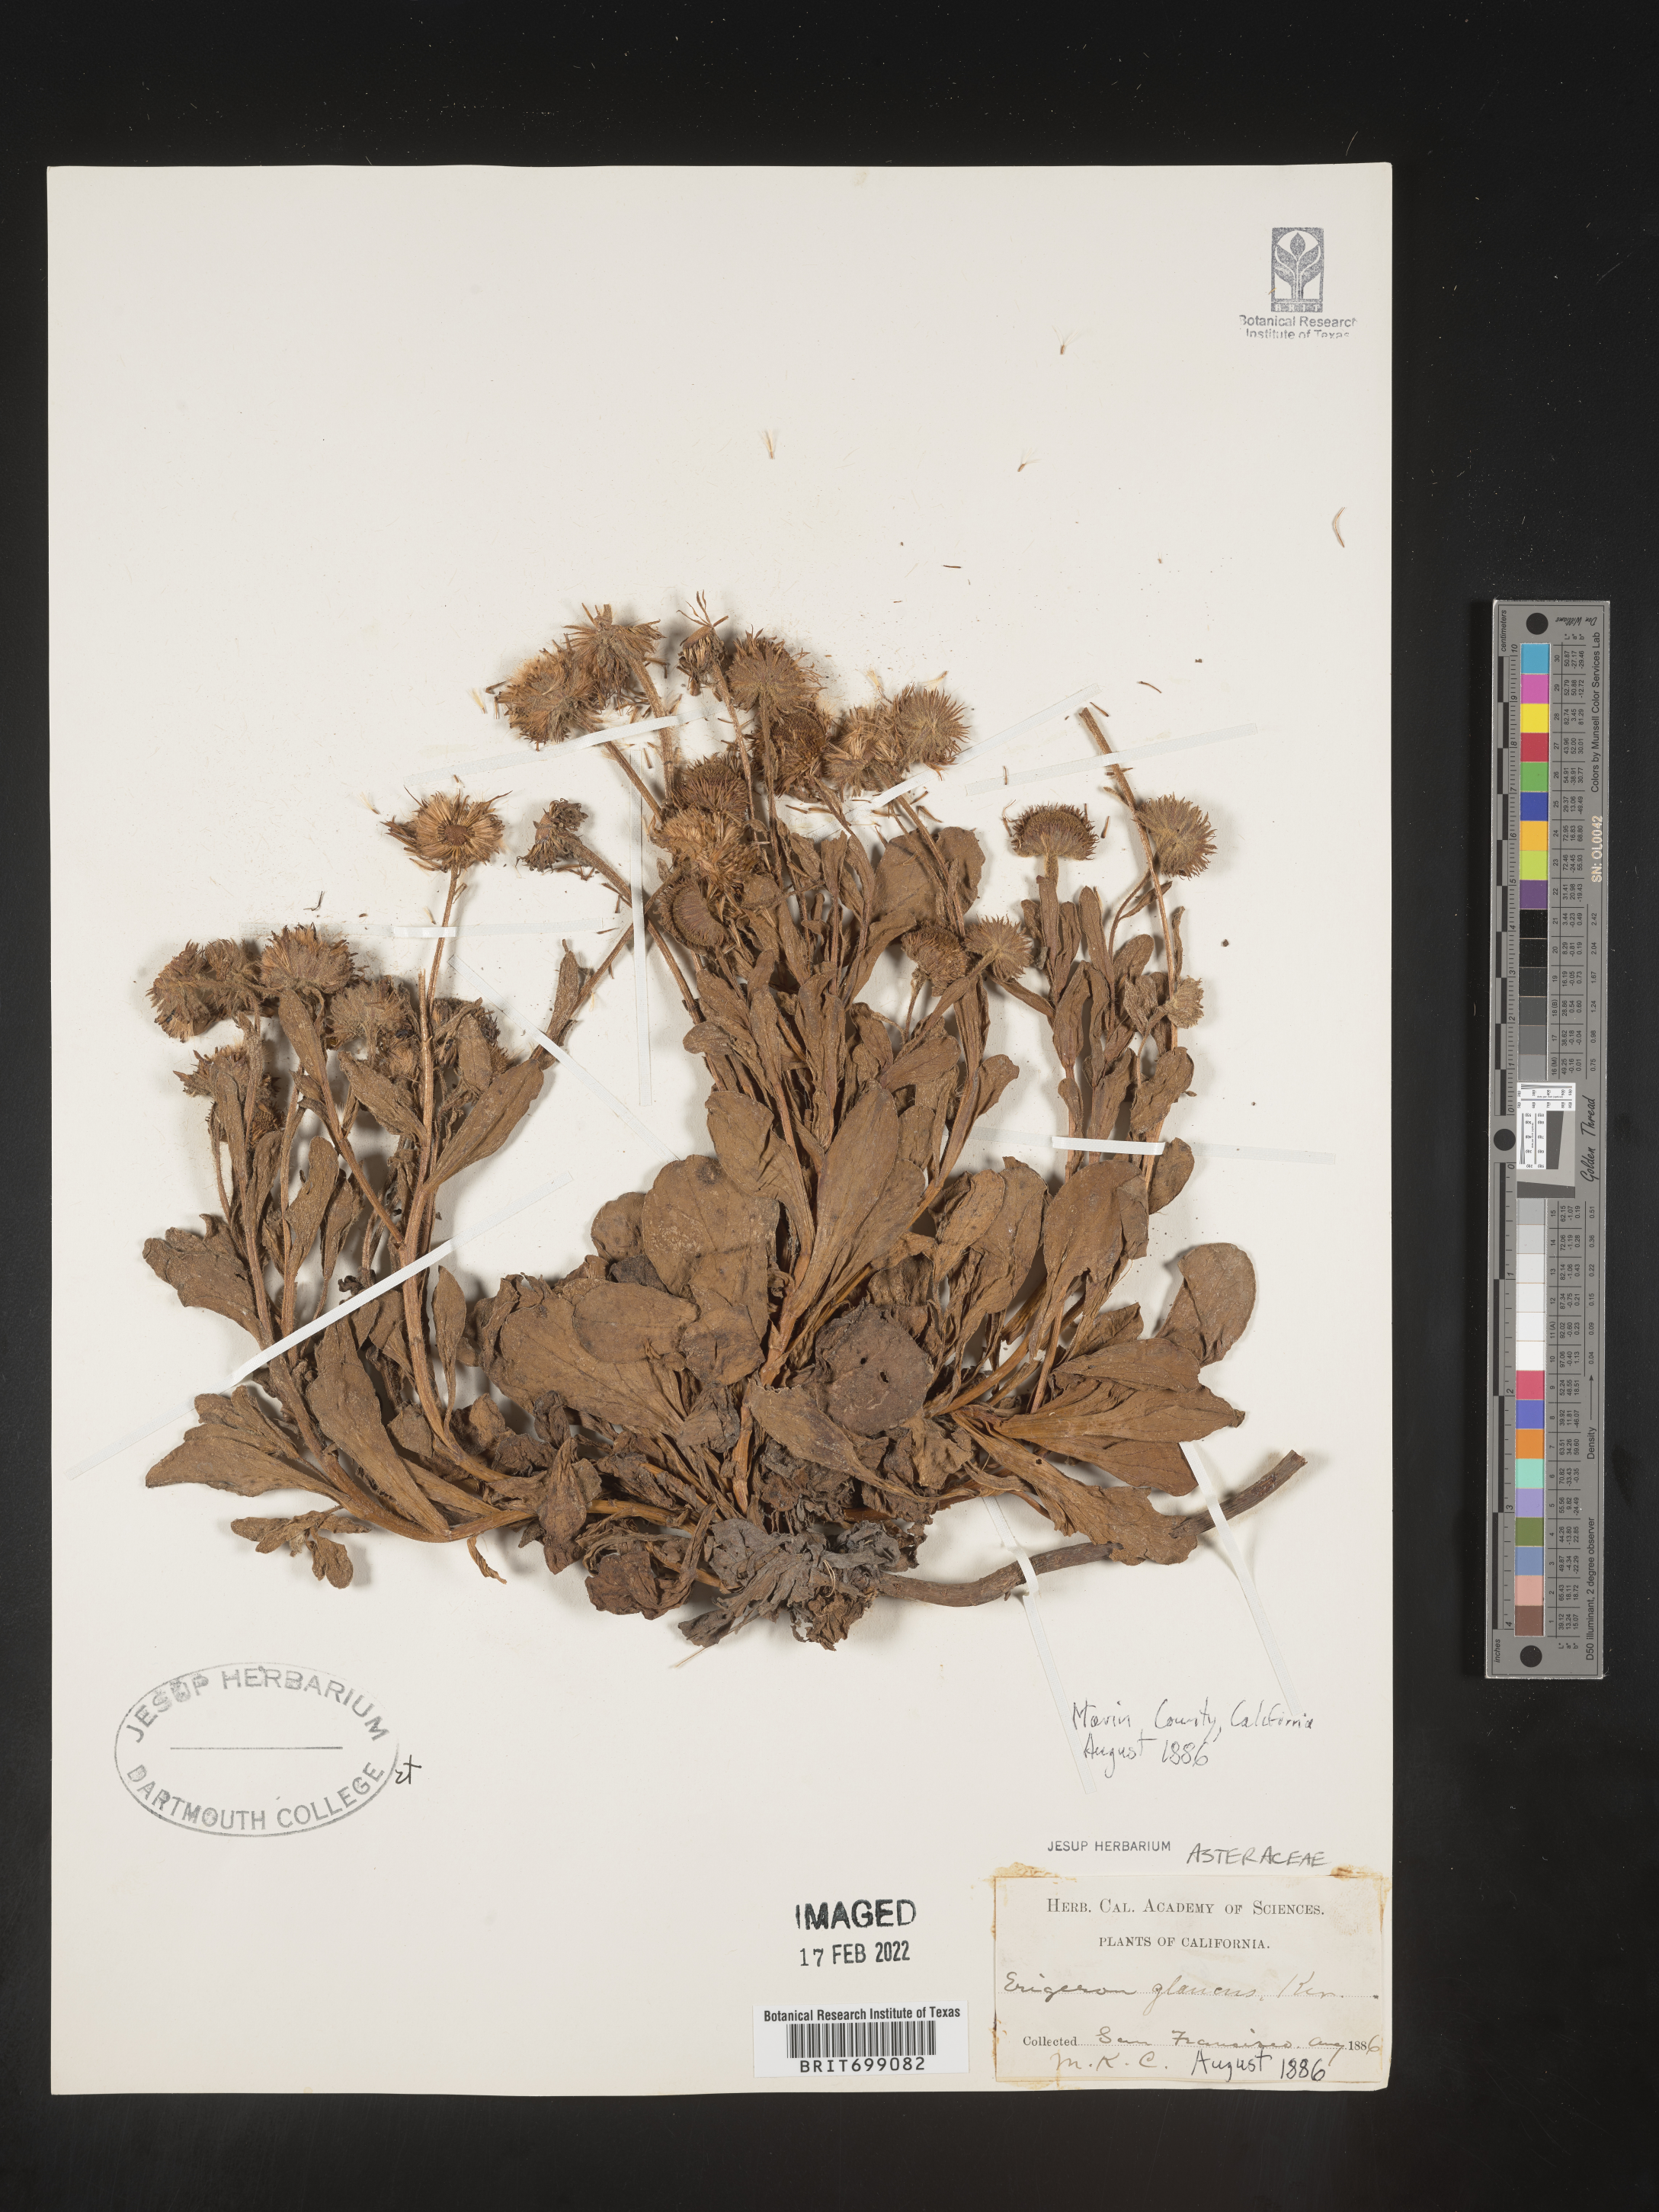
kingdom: Plantae
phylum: Tracheophyta
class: Magnoliopsida
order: Asterales
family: Asteraceae
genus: Erigeron
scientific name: Erigeron glaucus
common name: Seaside daisy
